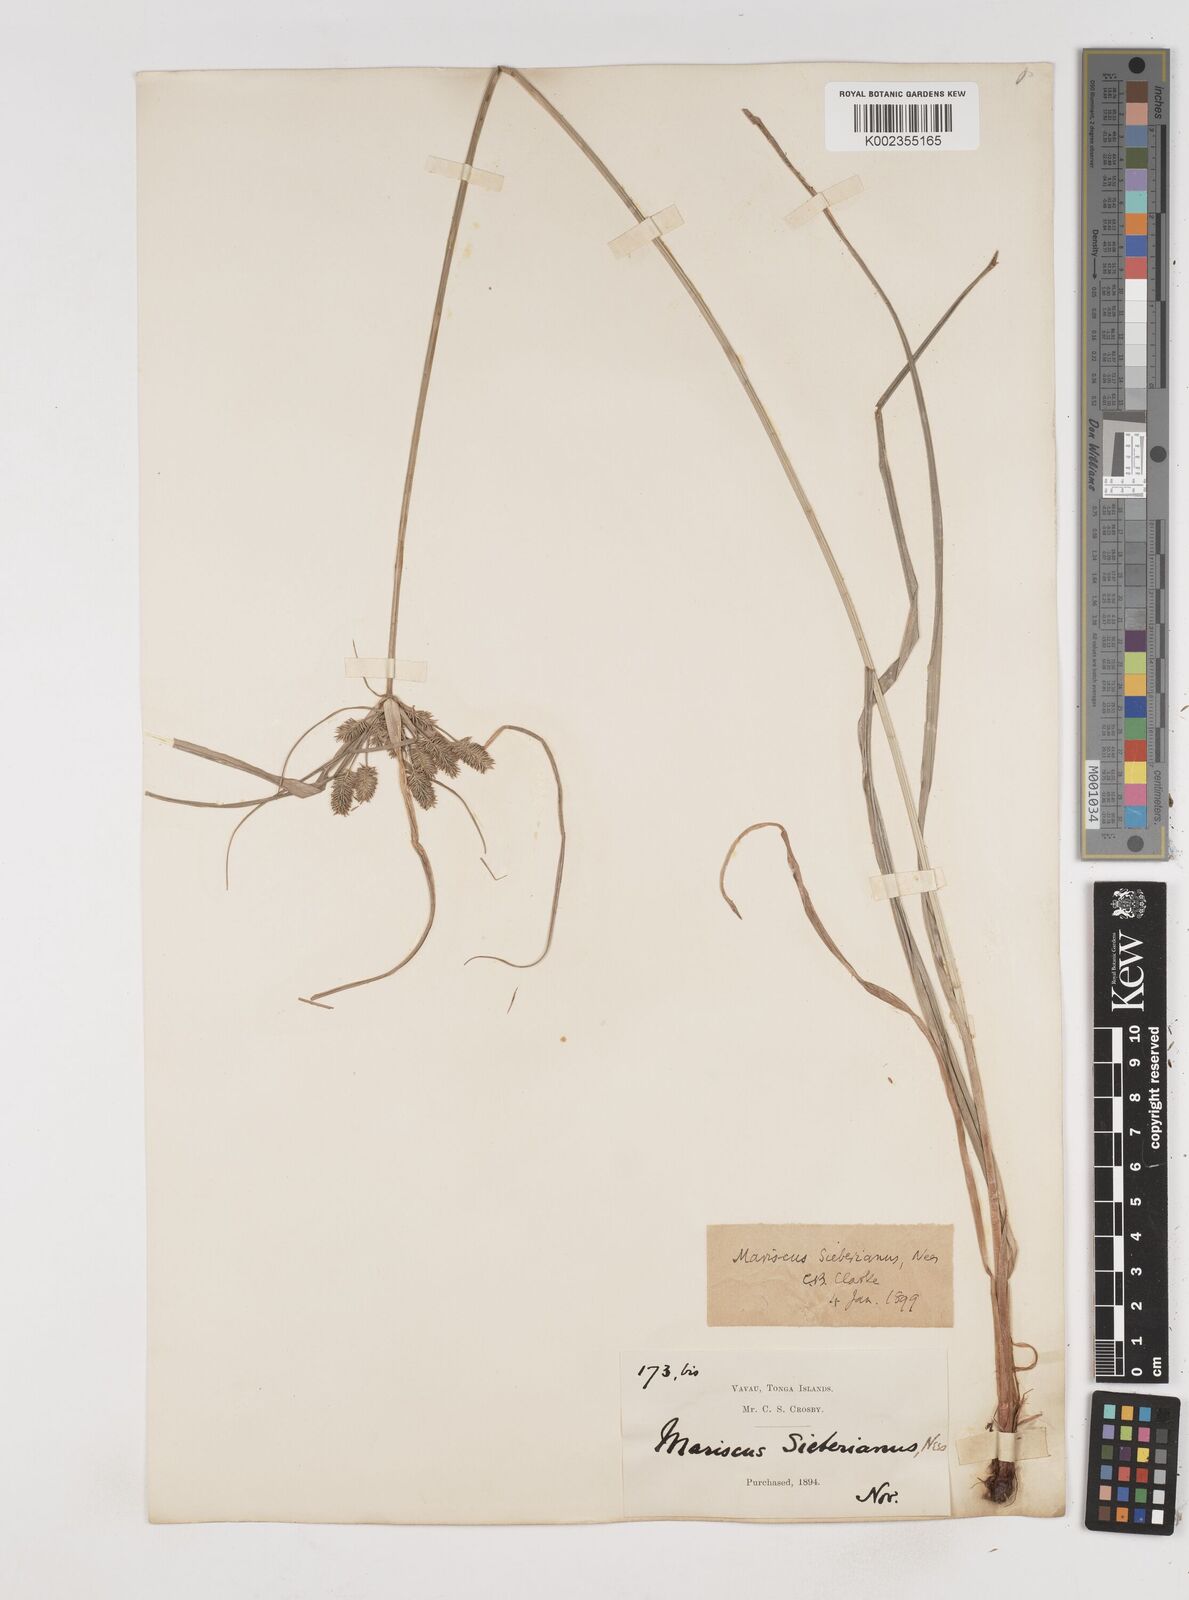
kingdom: Plantae
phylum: Tracheophyta
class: Liliopsida
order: Poales
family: Cyperaceae
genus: Cyperus
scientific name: Cyperus cyperoides
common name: Pacific island flat sedge
